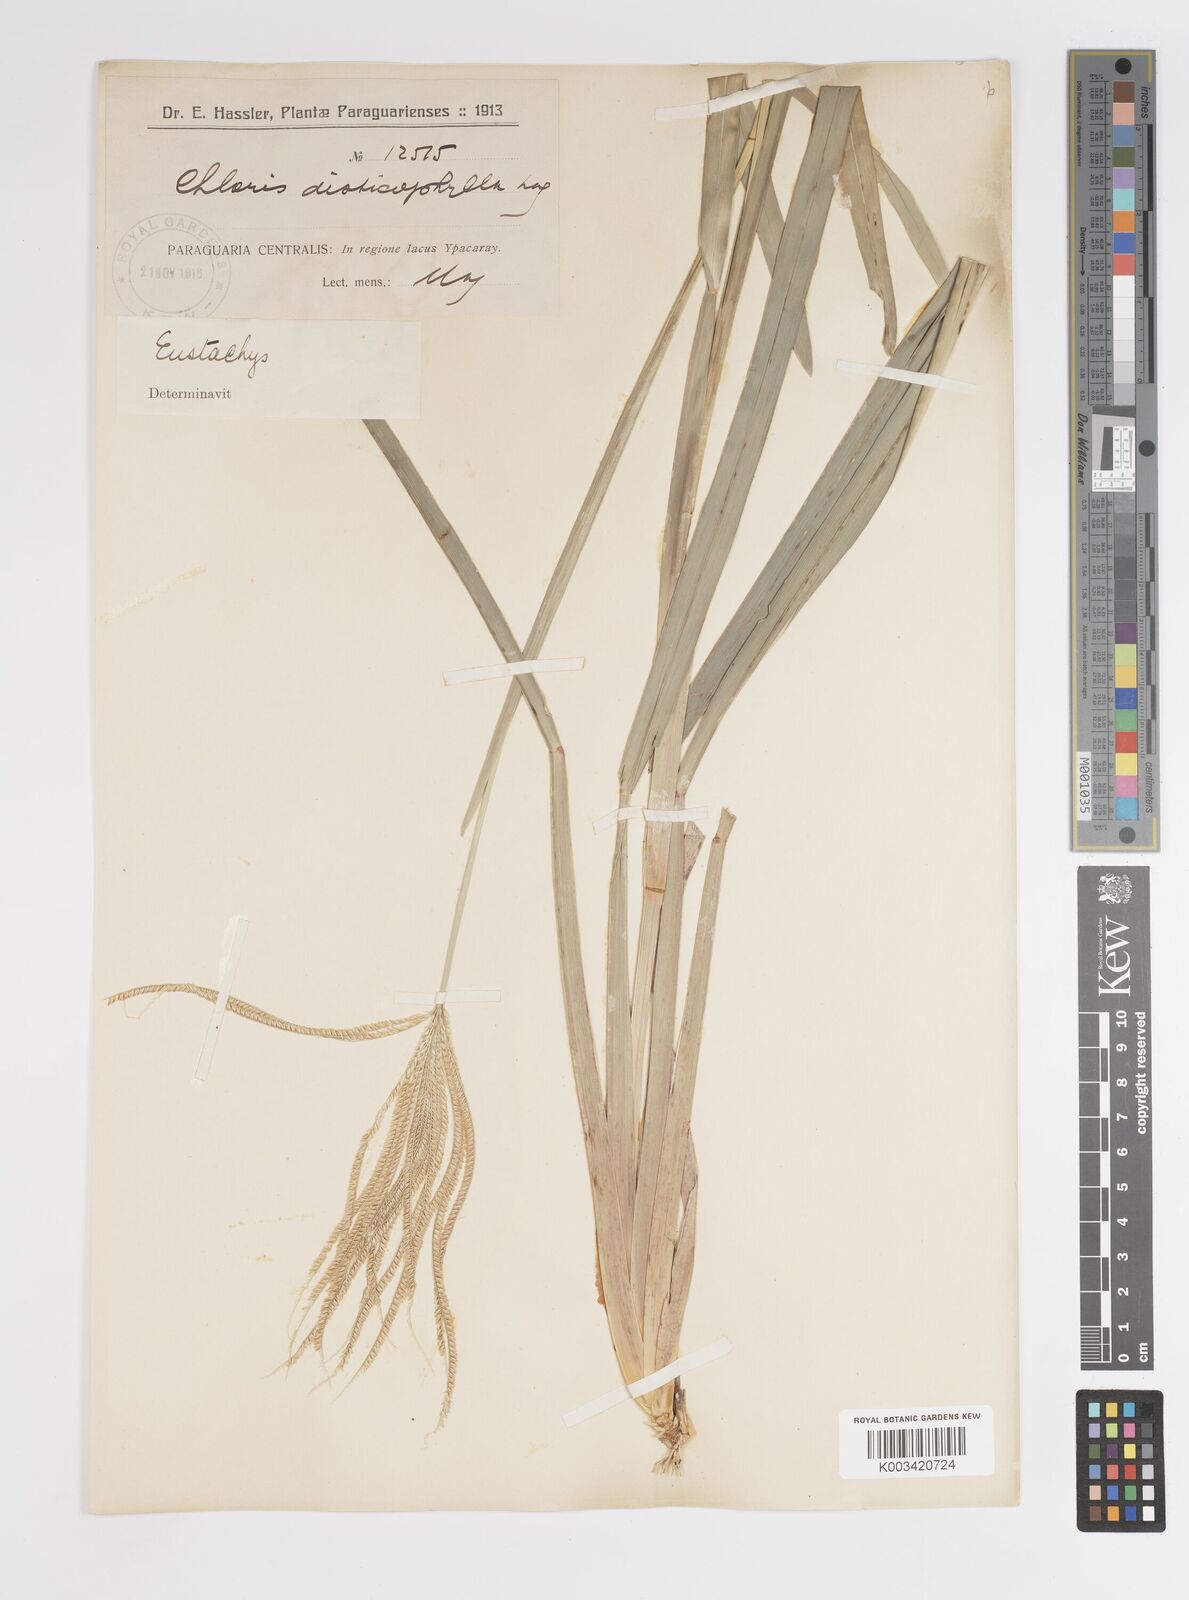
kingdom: Plantae
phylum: Tracheophyta
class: Liliopsida
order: Poales
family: Poaceae
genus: Eustachys
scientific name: Eustachys distichophylla
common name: Weeping fingergrass
